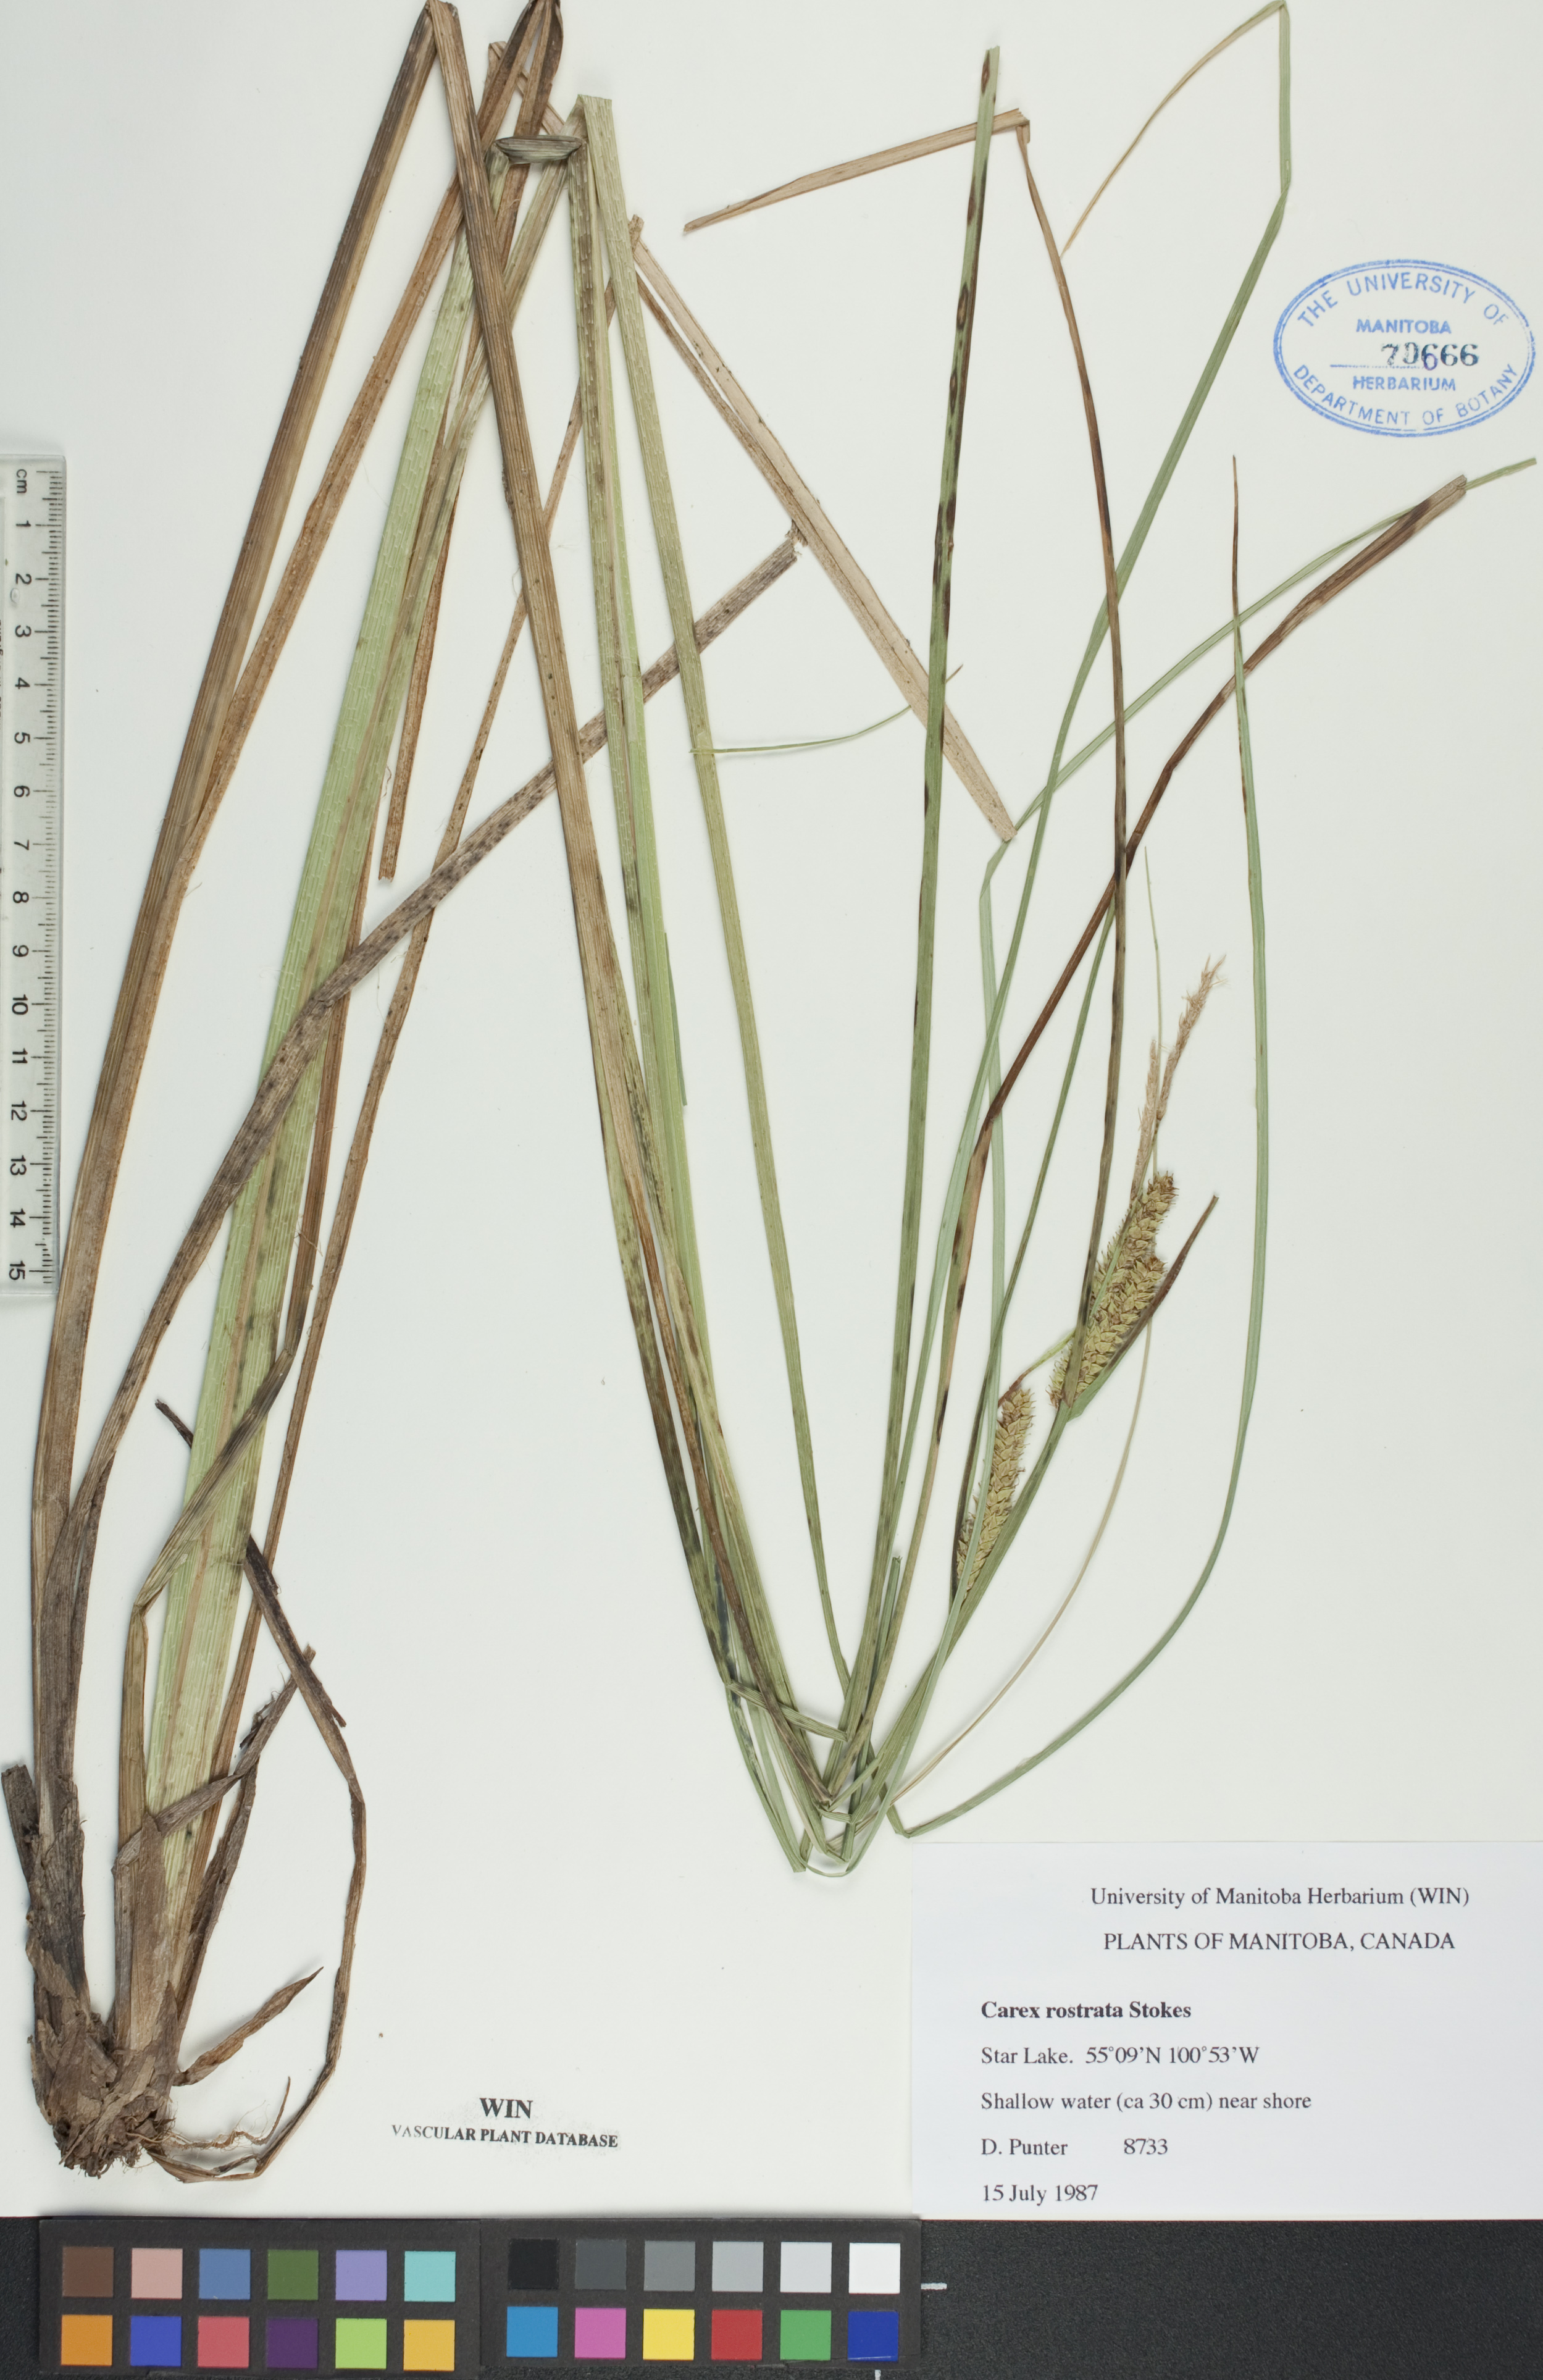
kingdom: Plantae
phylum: Tracheophyta
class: Liliopsida
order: Poales
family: Cyperaceae
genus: Carex
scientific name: Carex rostrata
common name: Bottle sedge
